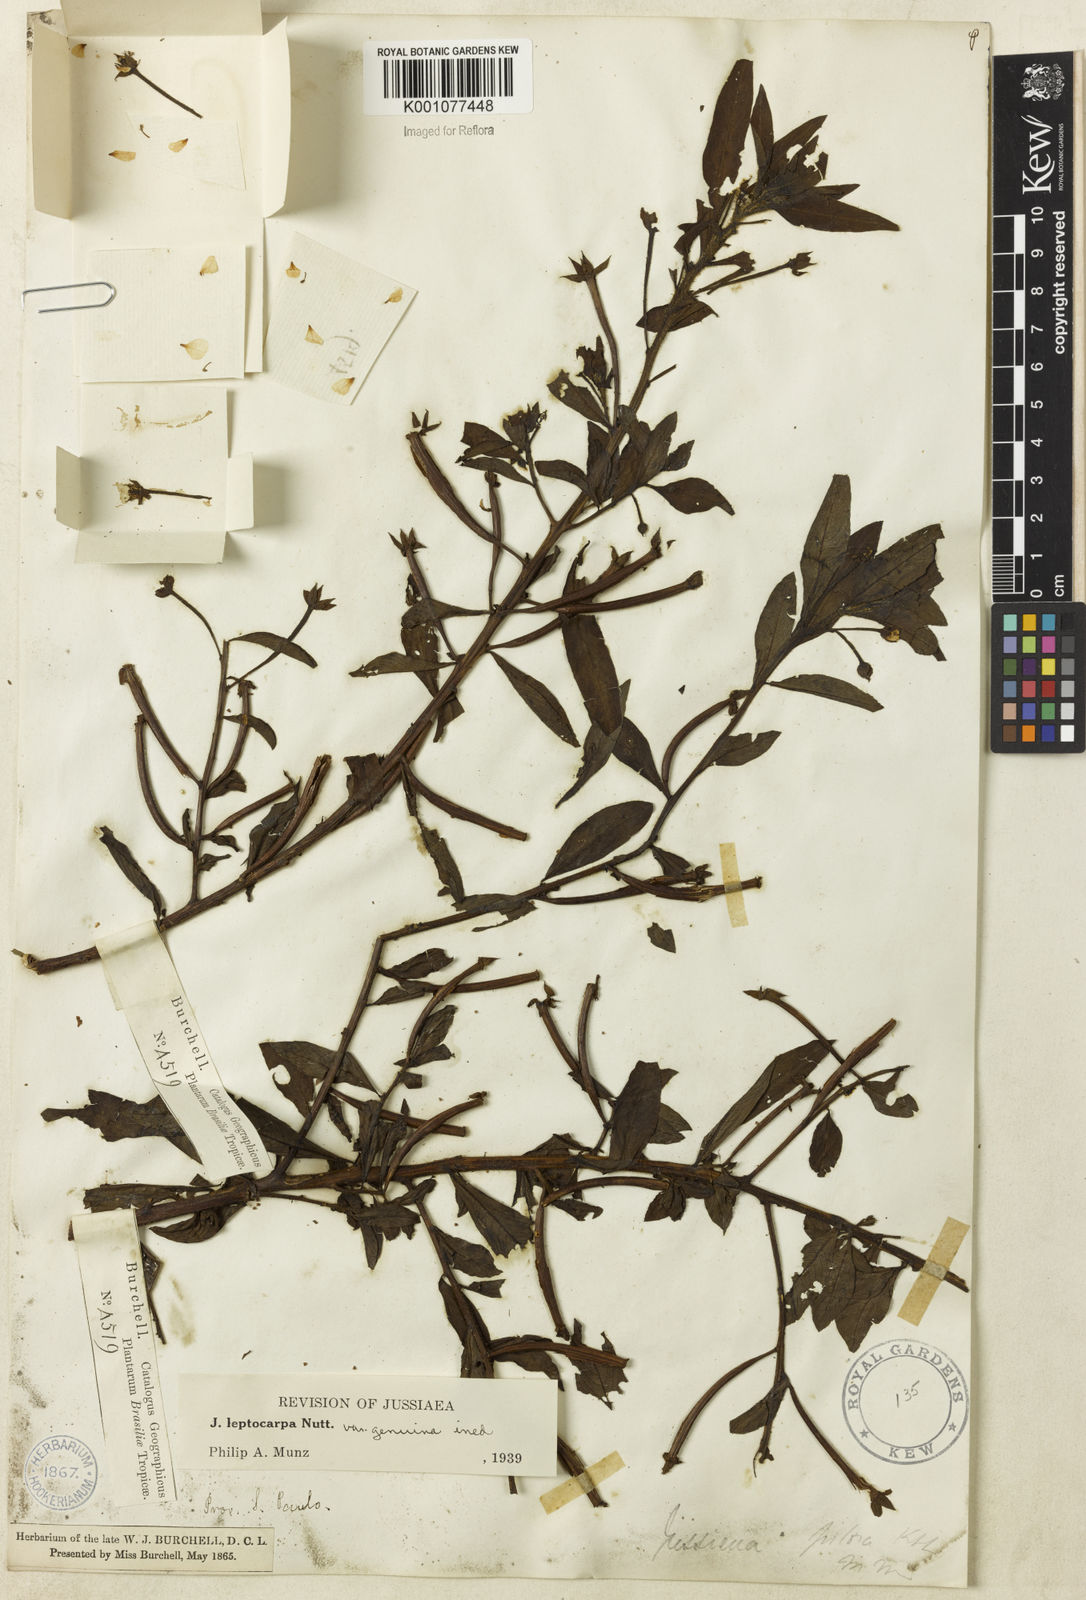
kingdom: Plantae
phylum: Tracheophyta
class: Magnoliopsida
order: Myrtales
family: Onagraceae
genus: Ludwigia
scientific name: Ludwigia leptocarpa
